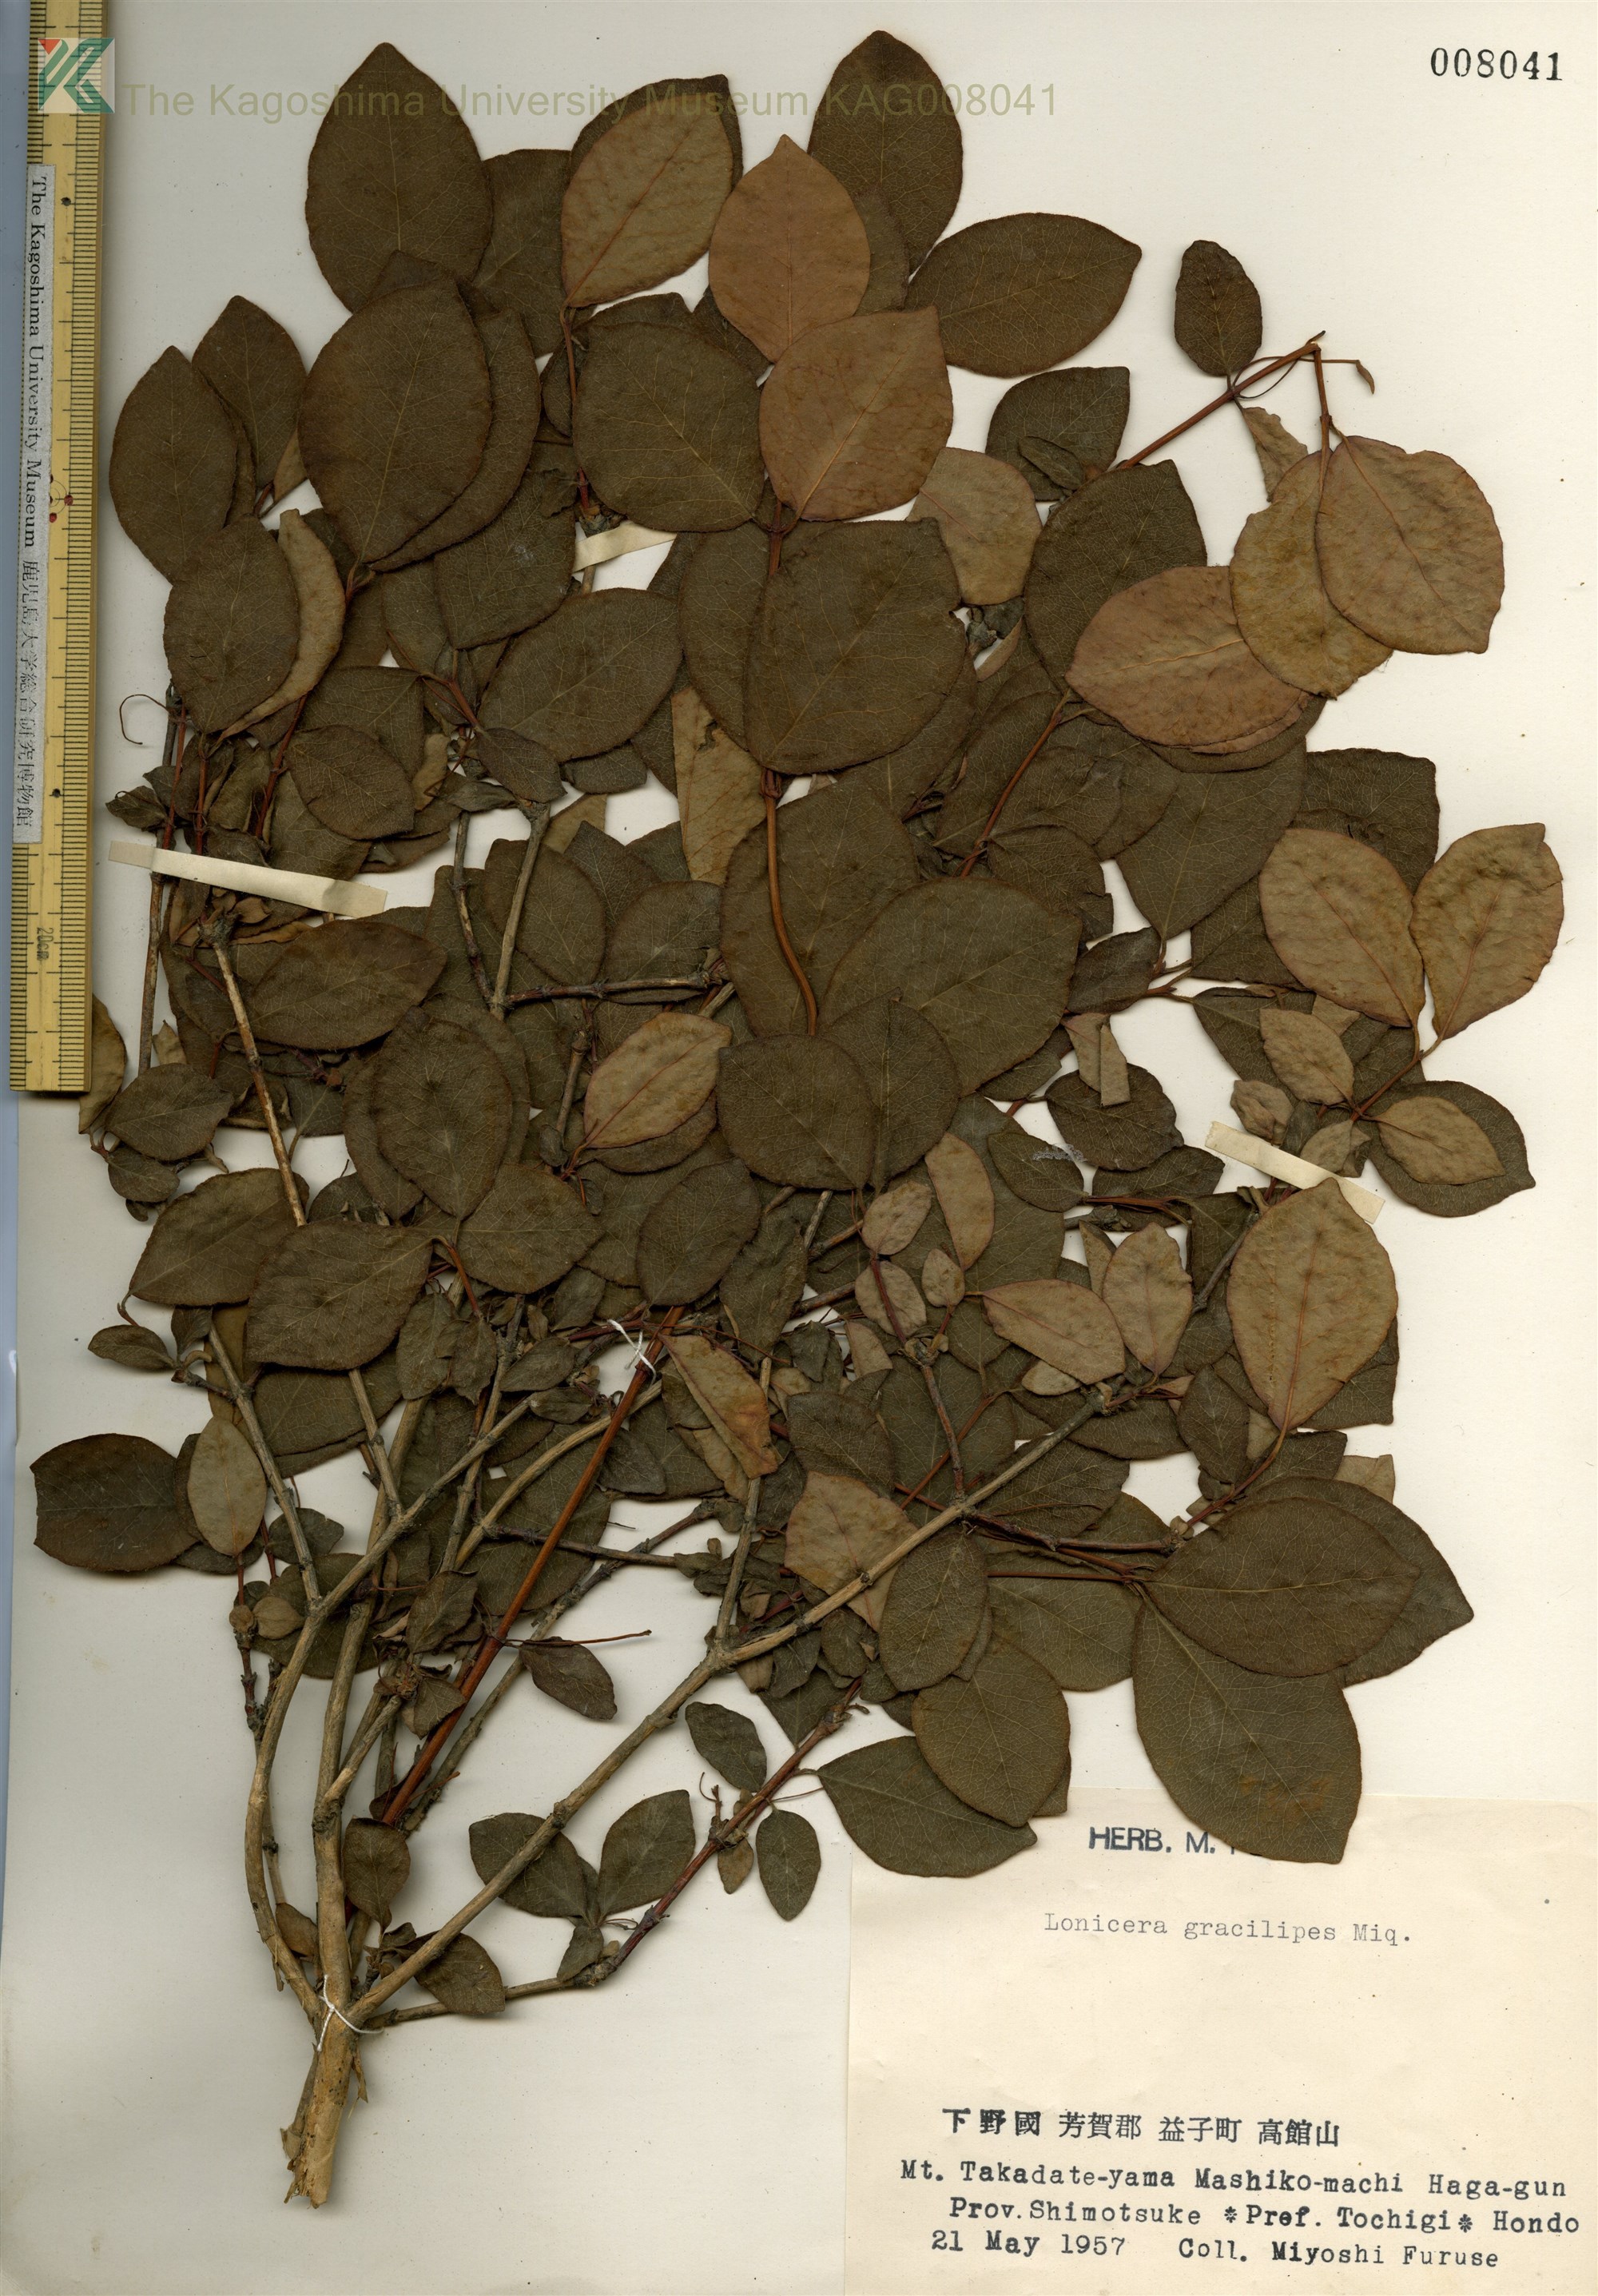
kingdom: Plantae
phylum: Tracheophyta
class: Magnoliopsida
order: Dipsacales
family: Caprifoliaceae
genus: Lonicera
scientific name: Lonicera gracilipes
